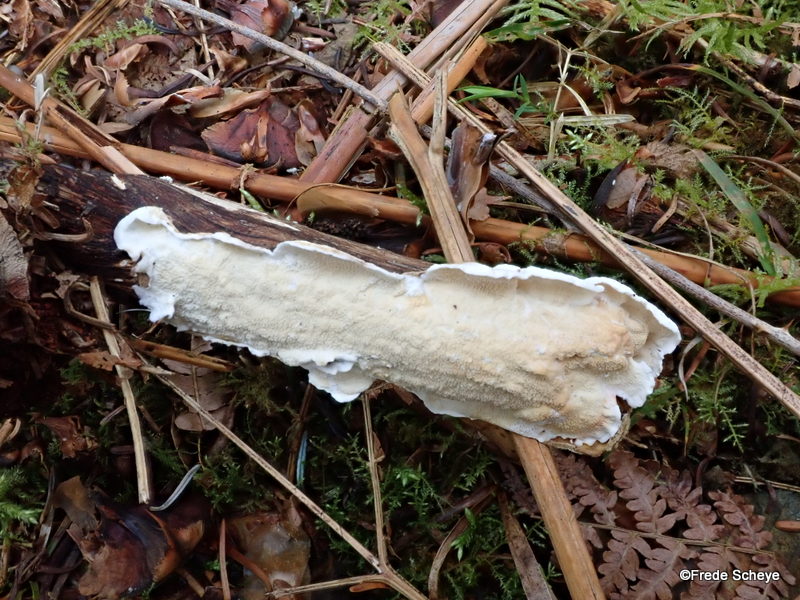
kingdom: Fungi
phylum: Basidiomycota
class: Agaricomycetes
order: Polyporales
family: Irpicaceae
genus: Byssomerulius
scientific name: Byssomerulius corium
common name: læder-åresvamp
